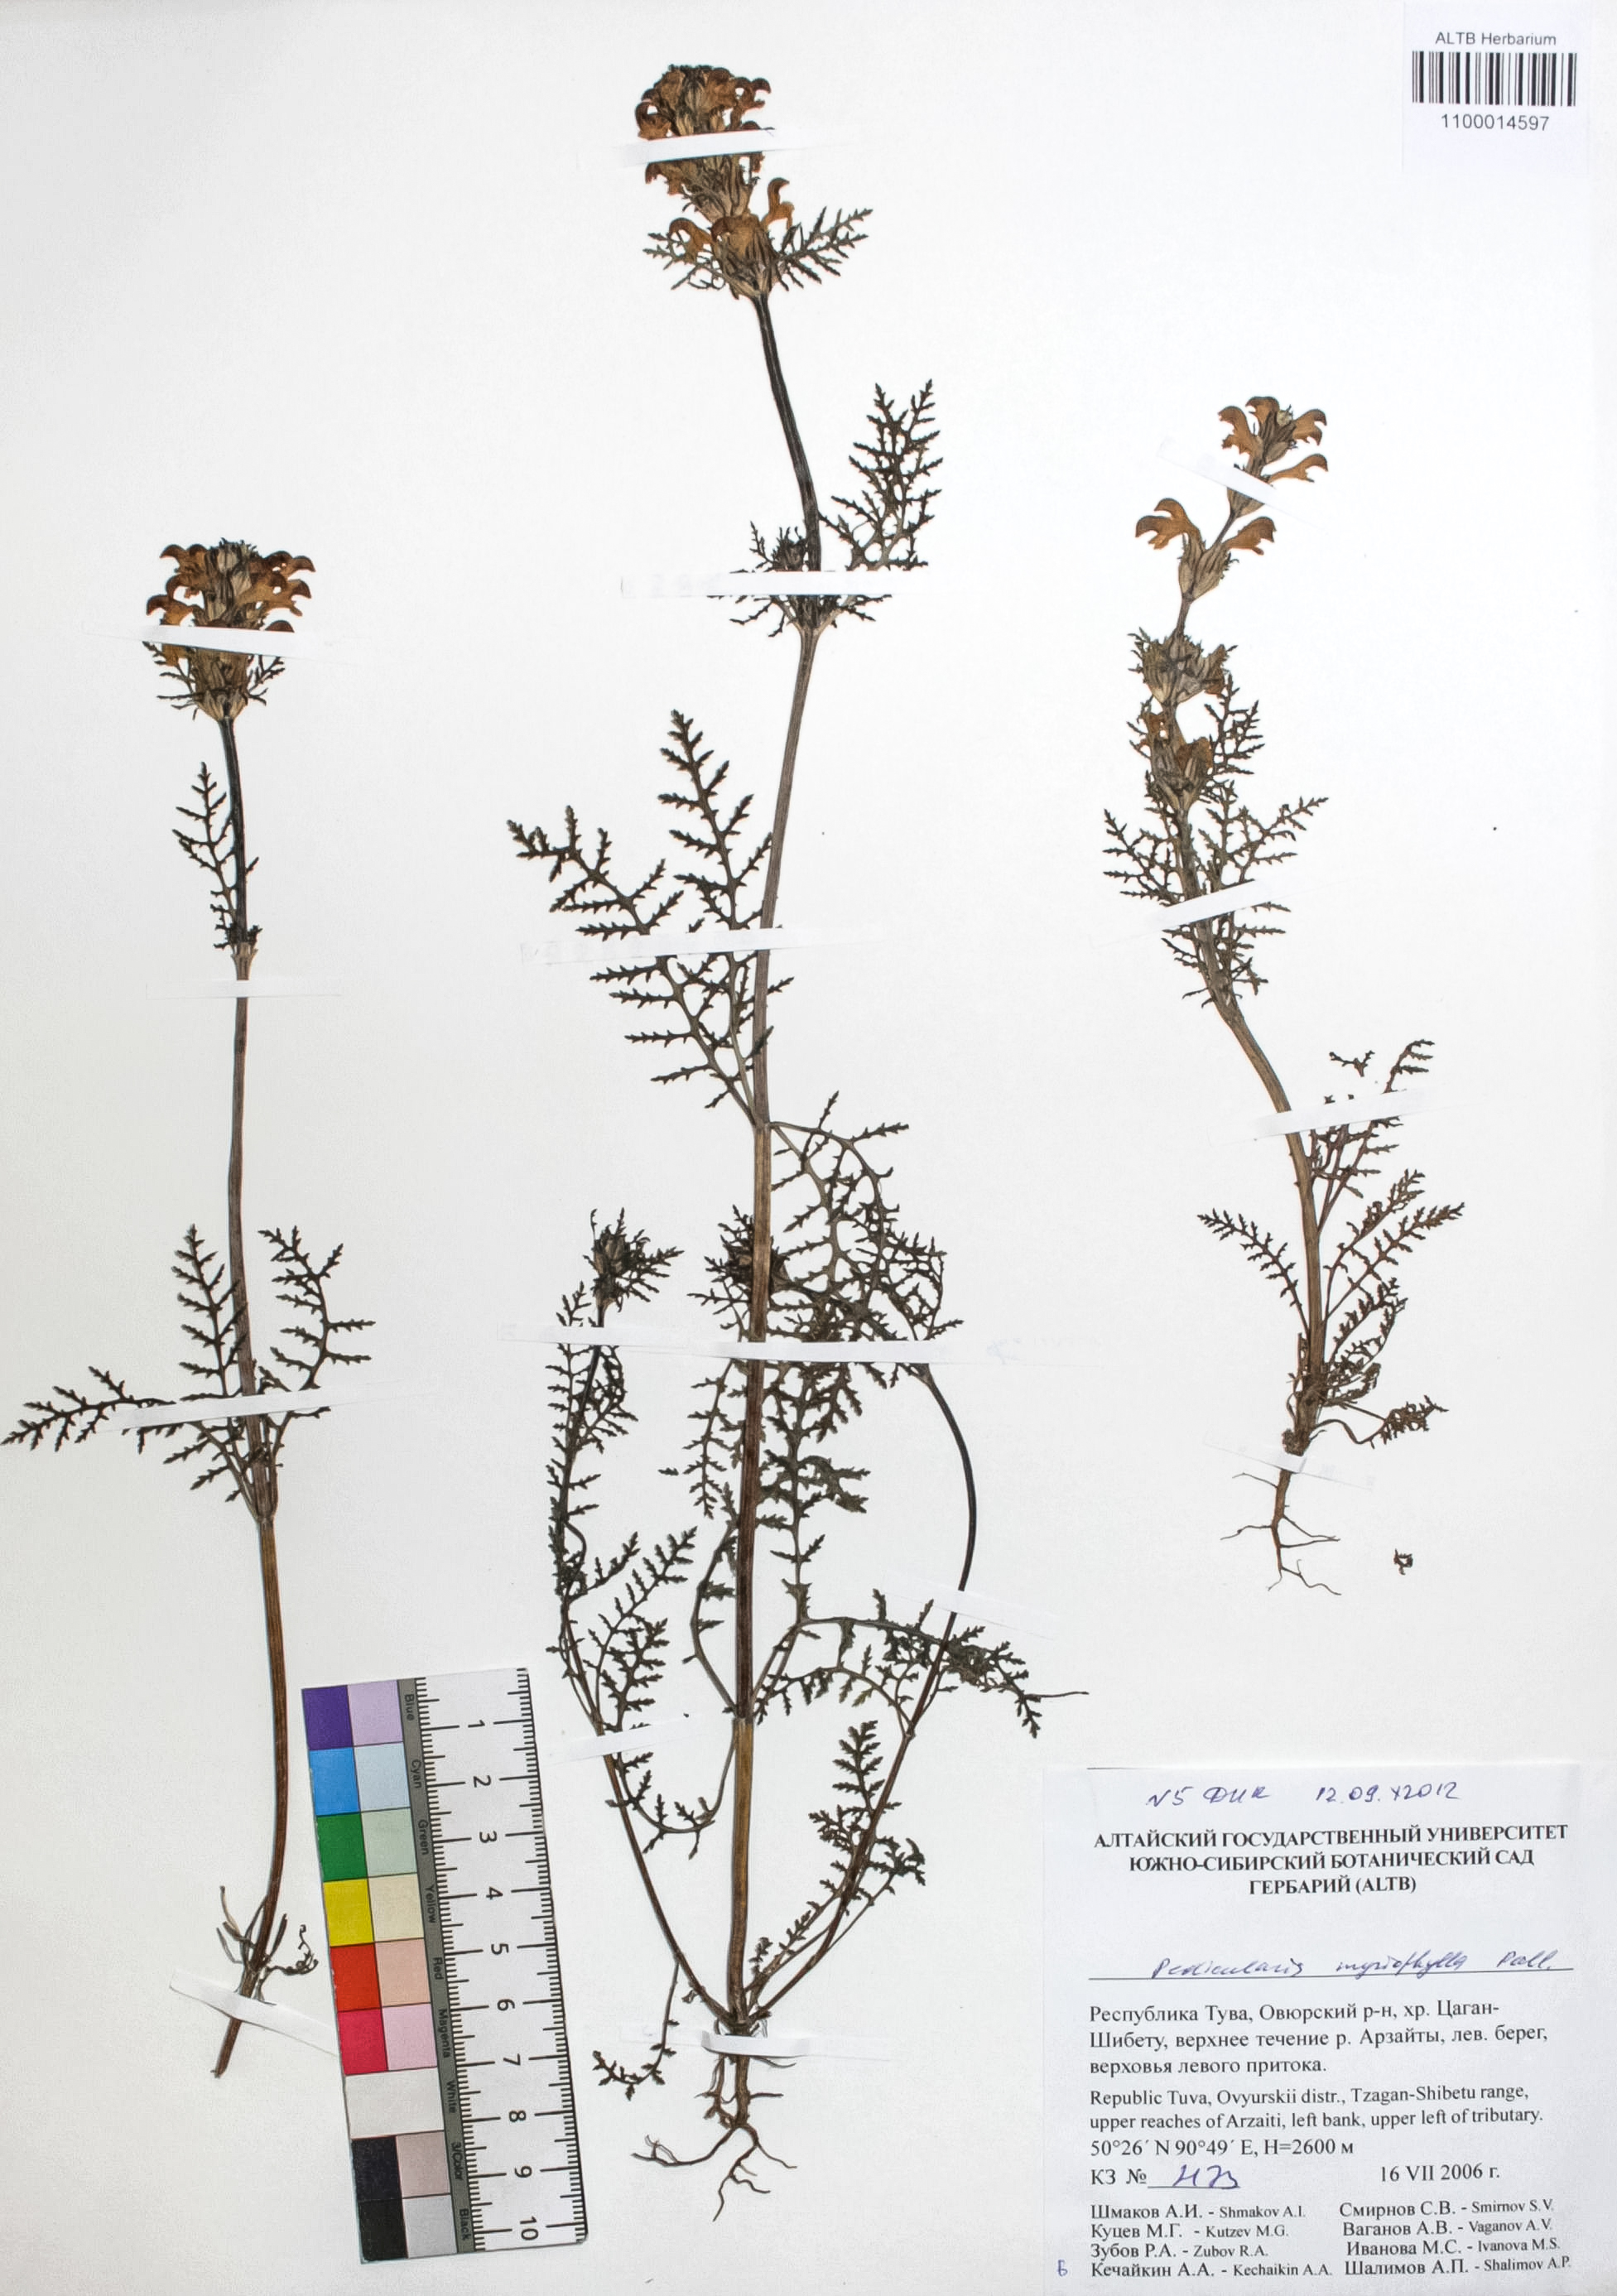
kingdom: Plantae
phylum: Tracheophyta
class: Magnoliopsida
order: Lamiales
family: Orobanchaceae
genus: Pedicularis
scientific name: Pedicularis myriophylla
